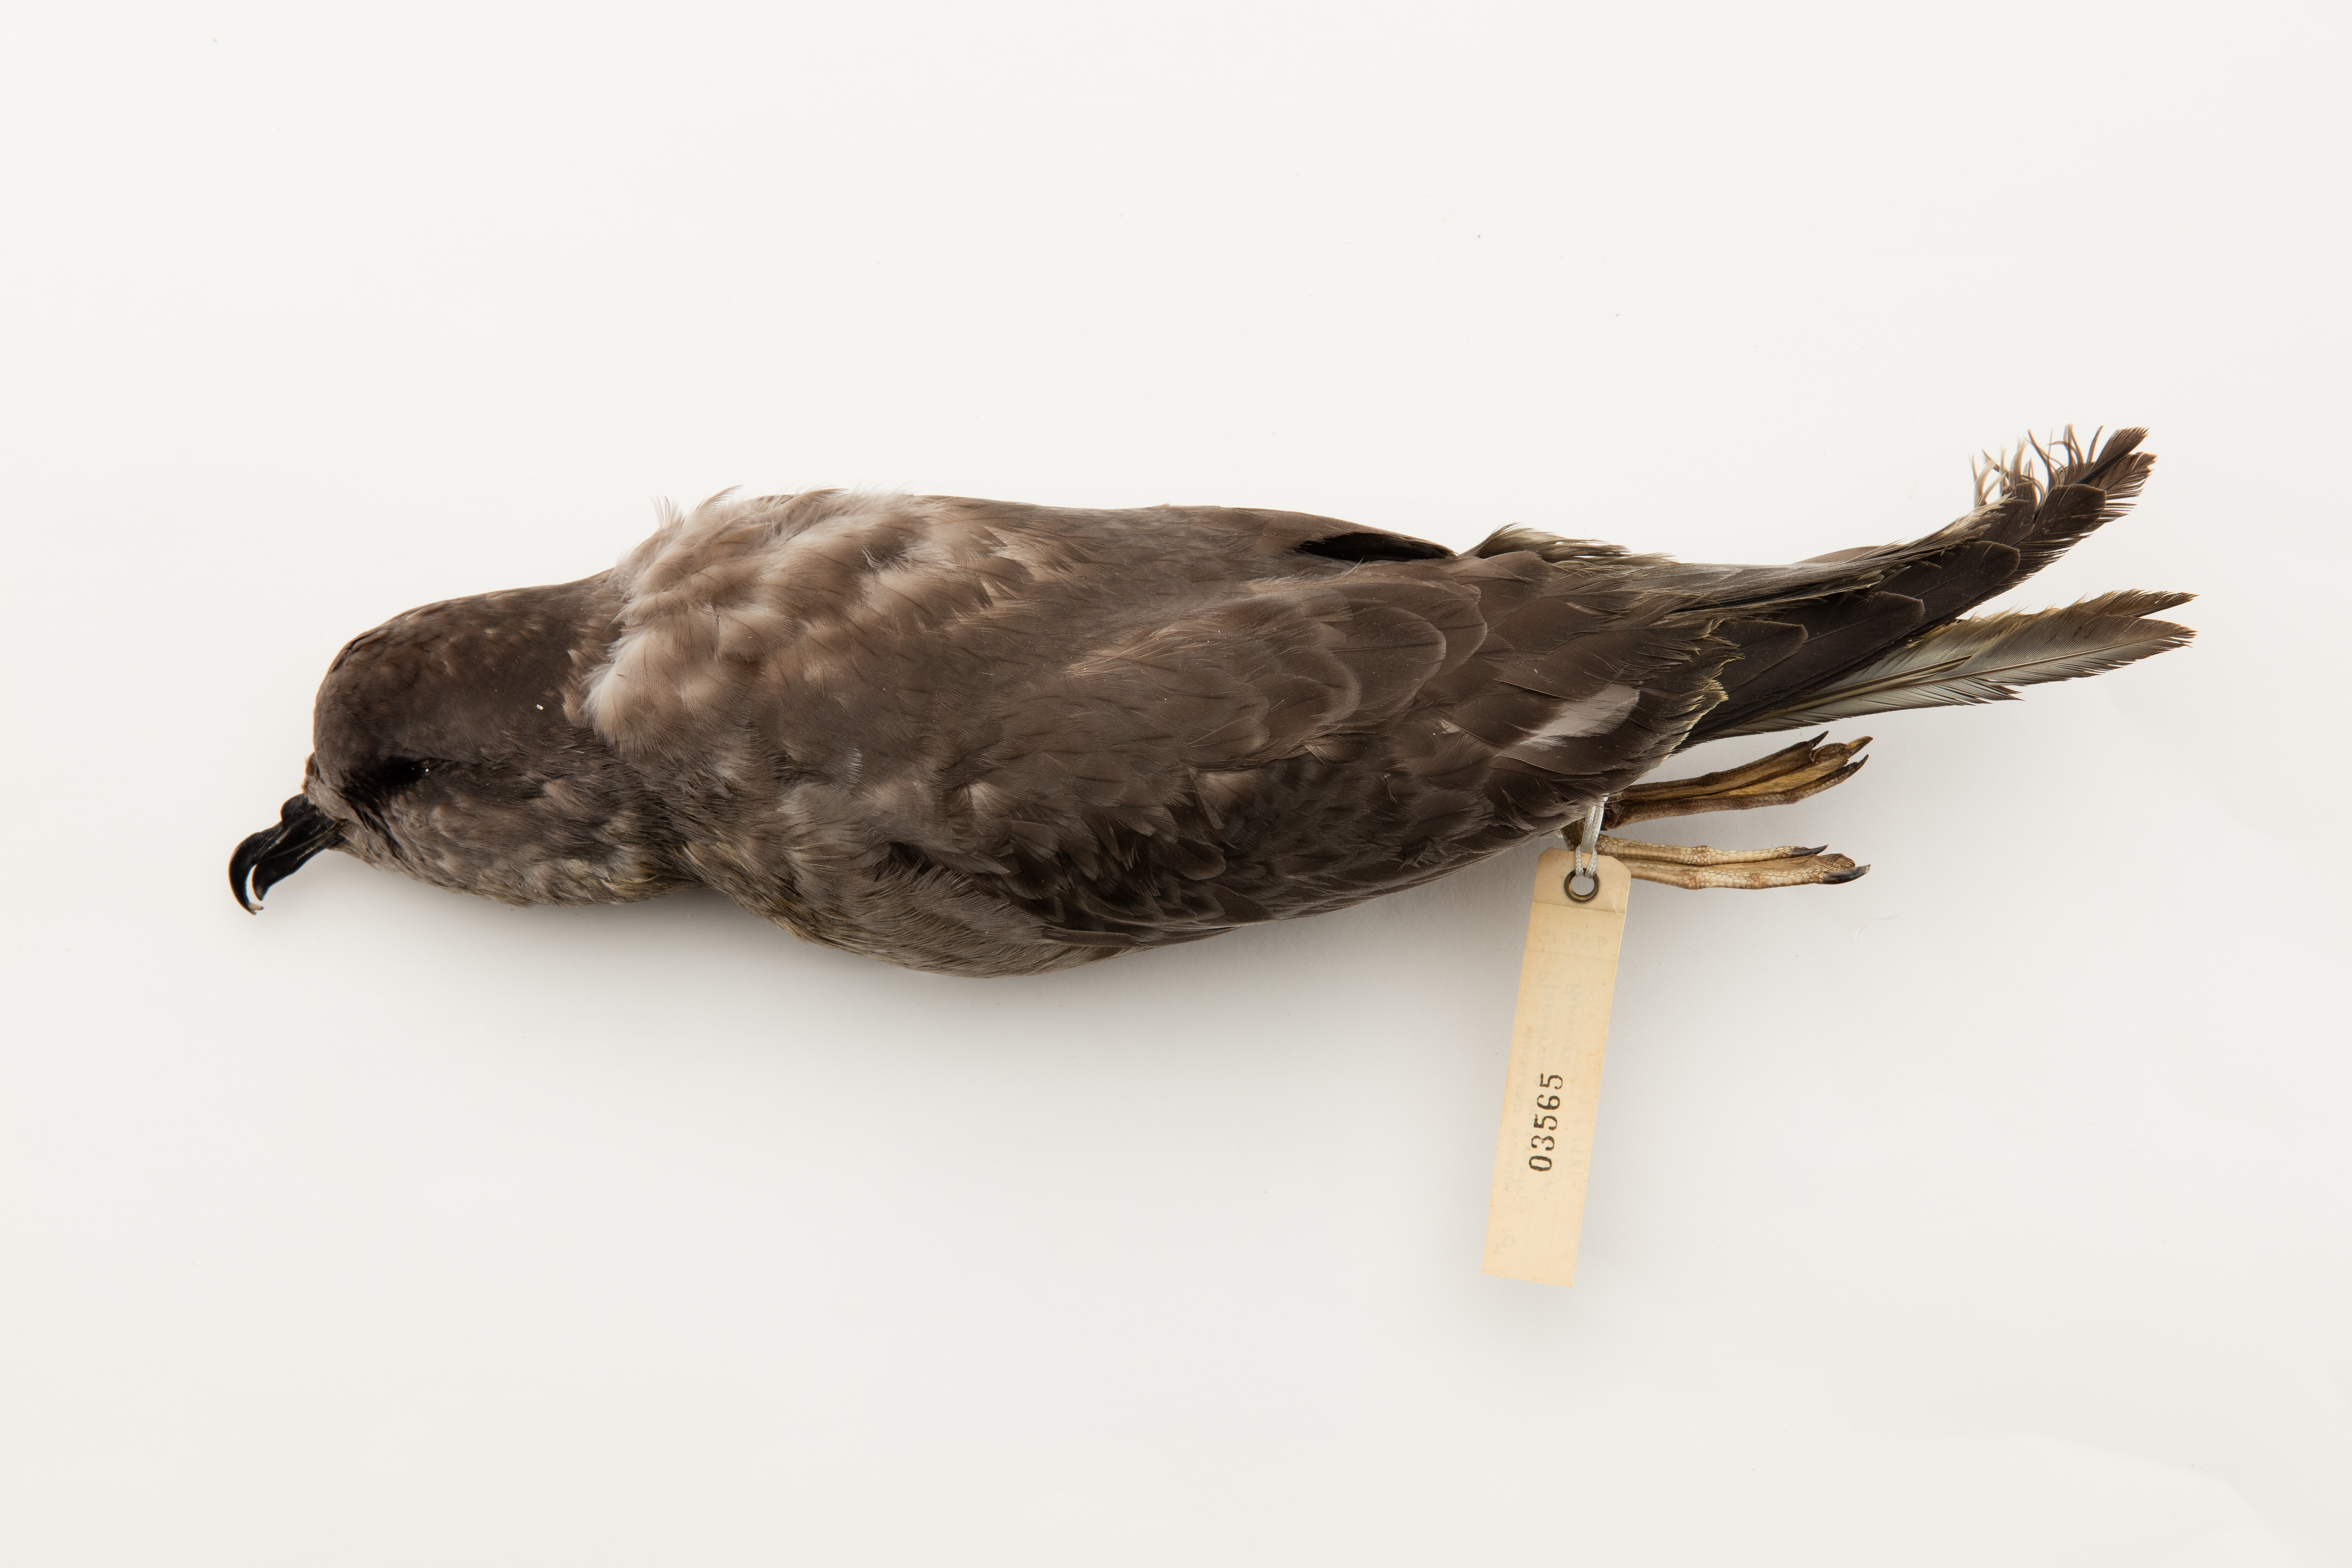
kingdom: Animalia
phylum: Chordata
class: Aves
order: Procellariiformes
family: Procellariidae
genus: Aphrodroma
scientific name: Aphrodroma brevirostris
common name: Kerguelen petrel
